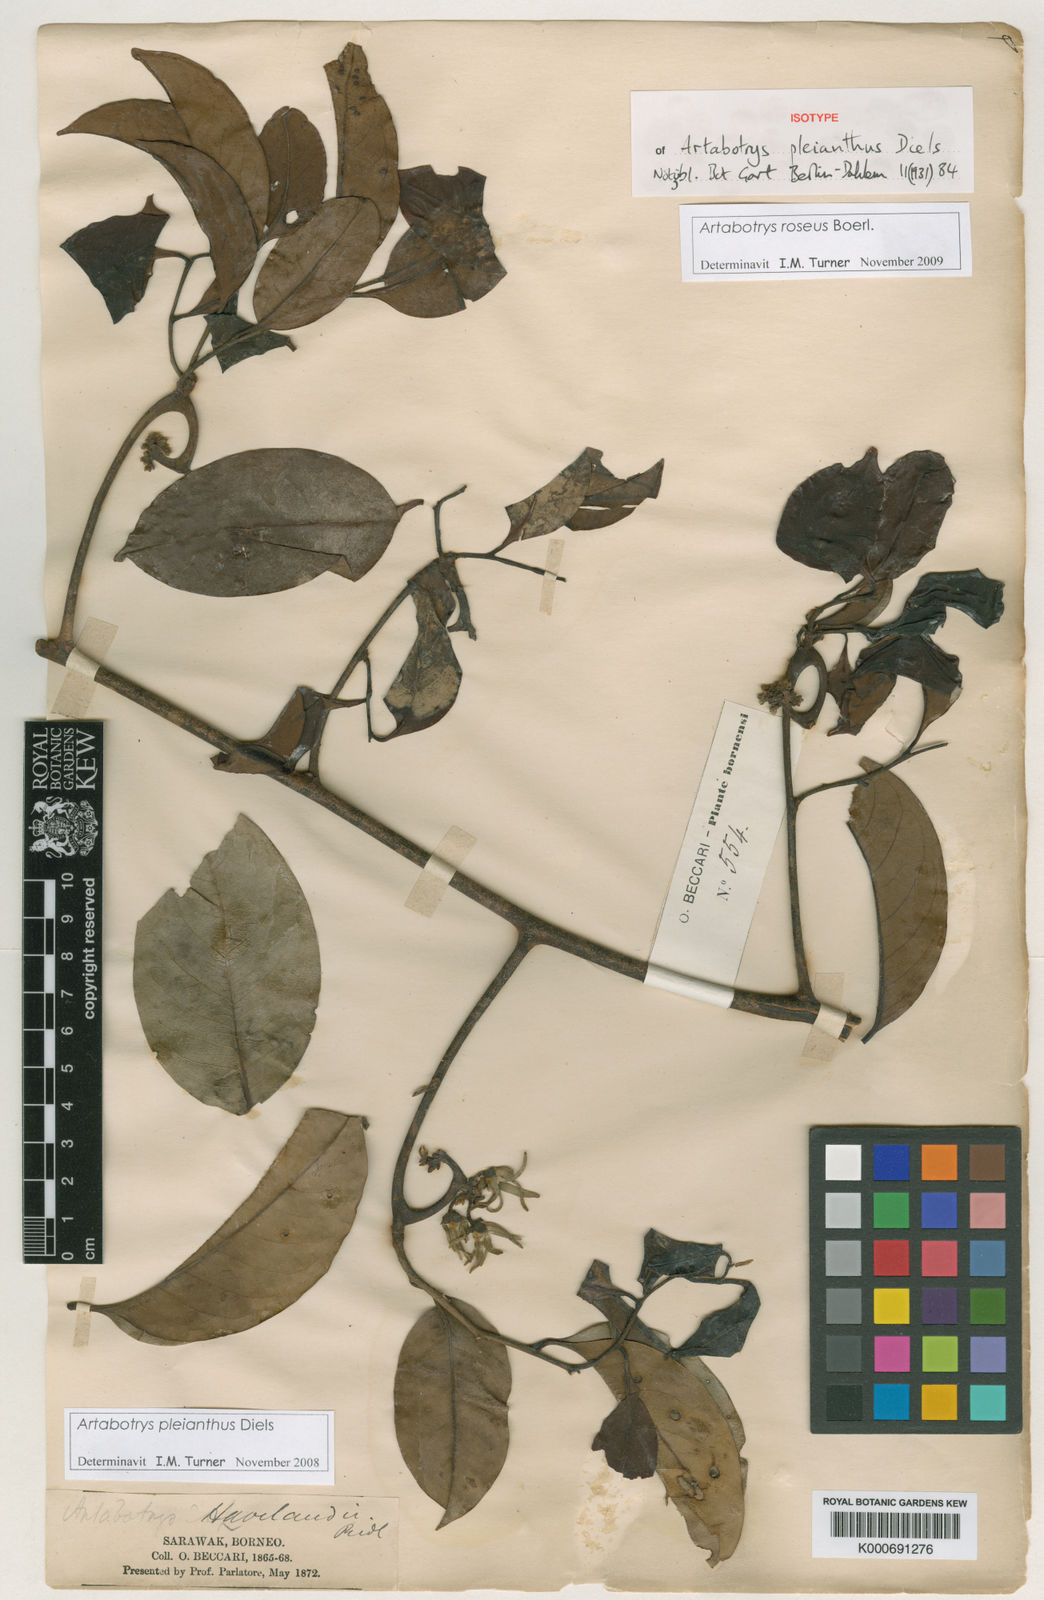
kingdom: Plantae
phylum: Tracheophyta
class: Magnoliopsida
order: Magnoliales
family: Annonaceae
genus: Artabotrys
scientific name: Artabotrys maingayi
